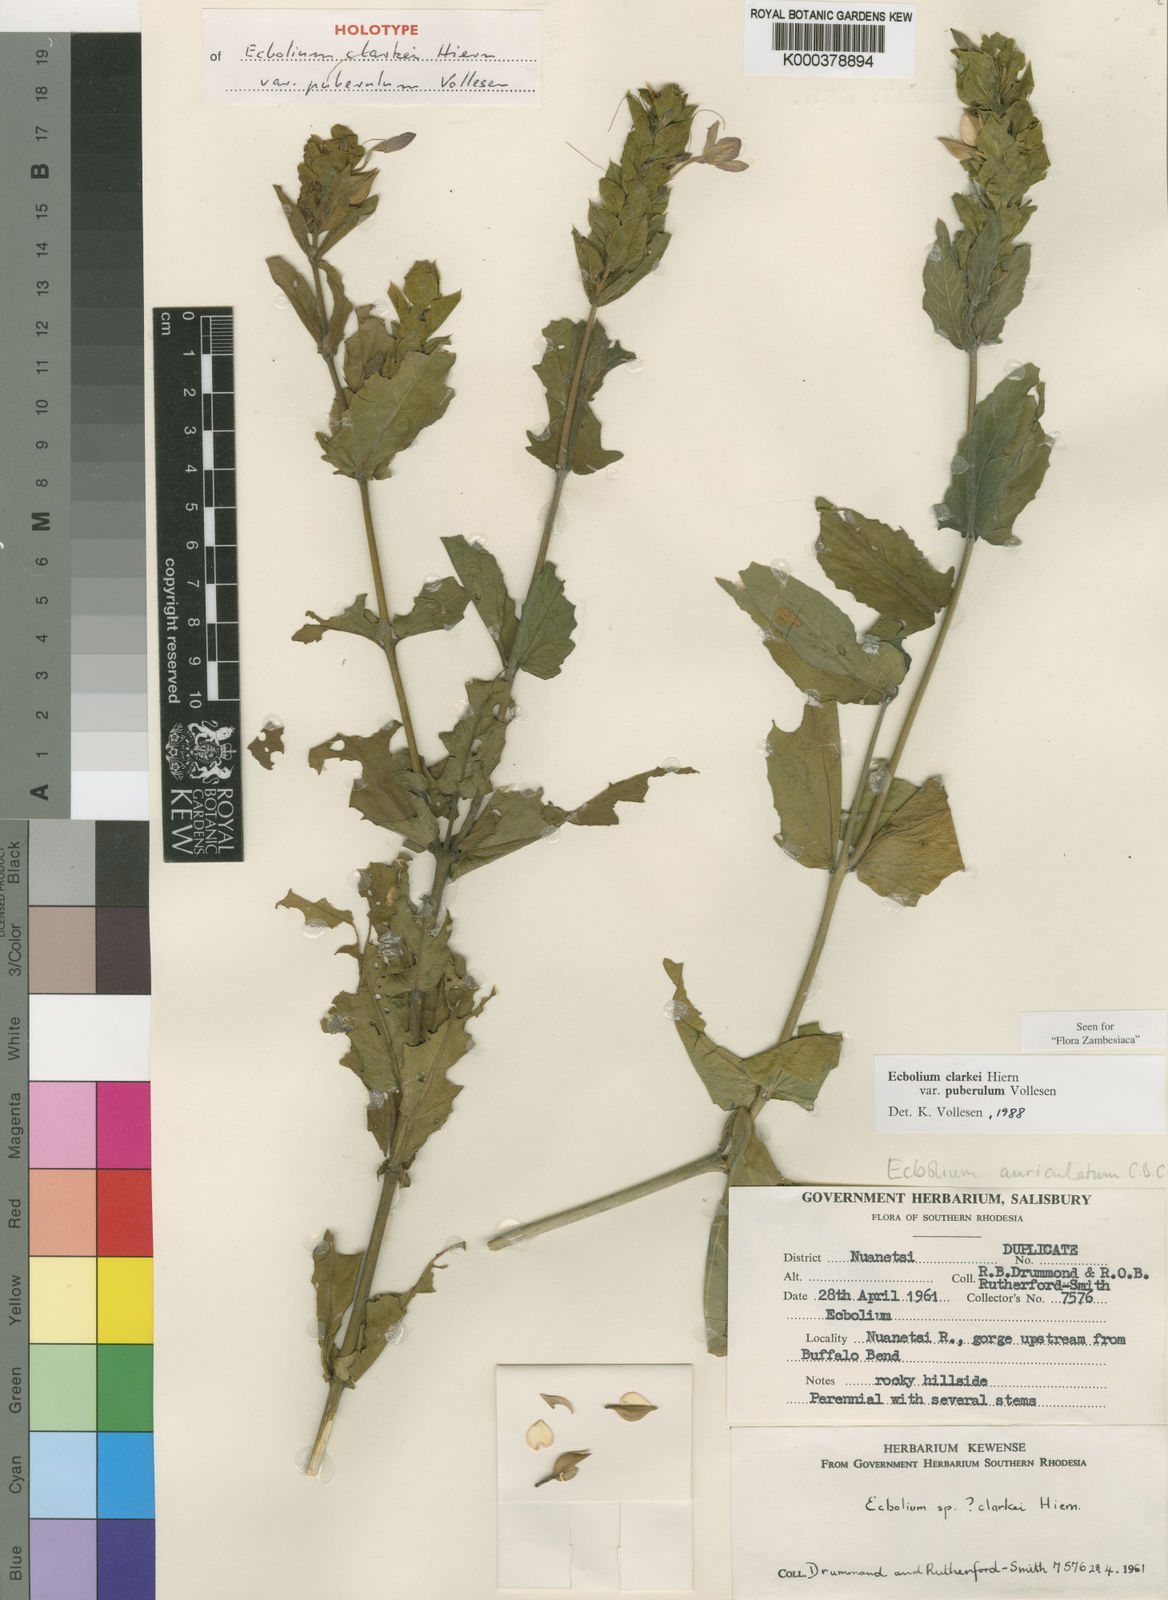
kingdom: Plantae
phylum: Tracheophyta
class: Magnoliopsida
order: Lamiales
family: Acanthaceae
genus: Ecbolium
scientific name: Ecbolium clarkei
